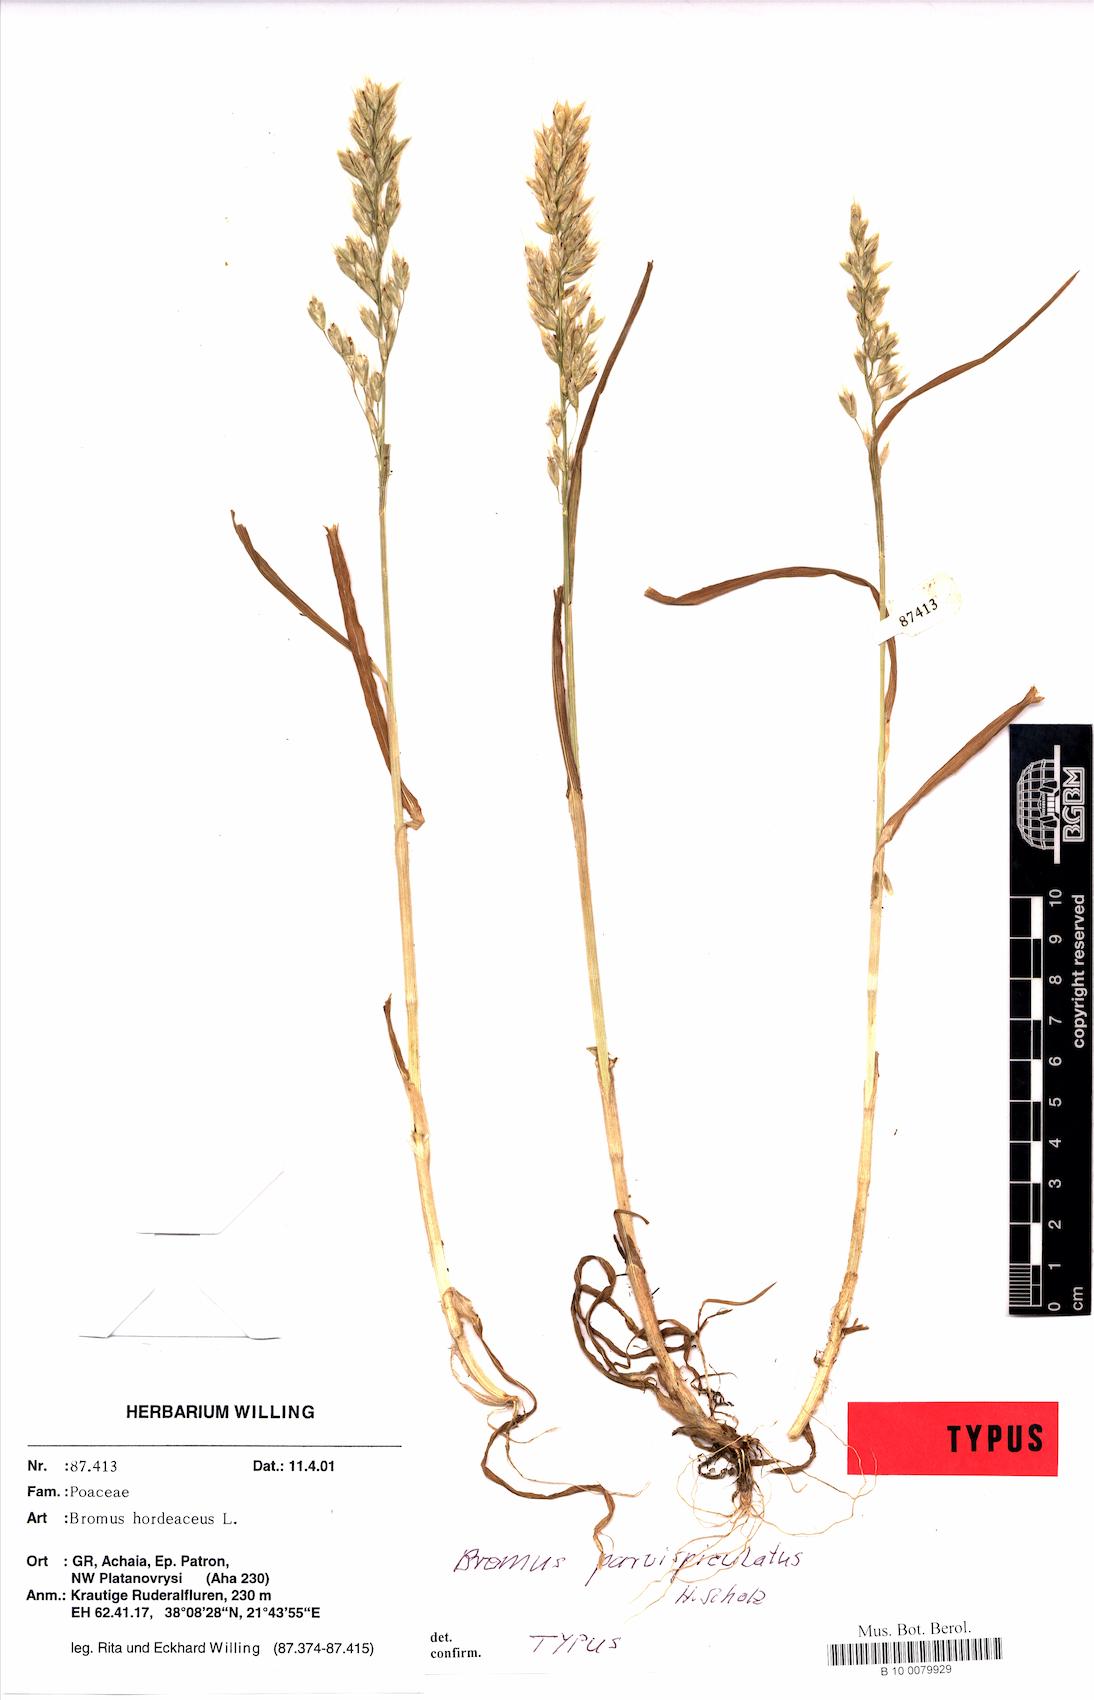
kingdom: Plantae
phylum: Tracheophyta
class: Liliopsida
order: Poales
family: Poaceae
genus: Bromus
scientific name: Bromus hordeaceus
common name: Soft brome
